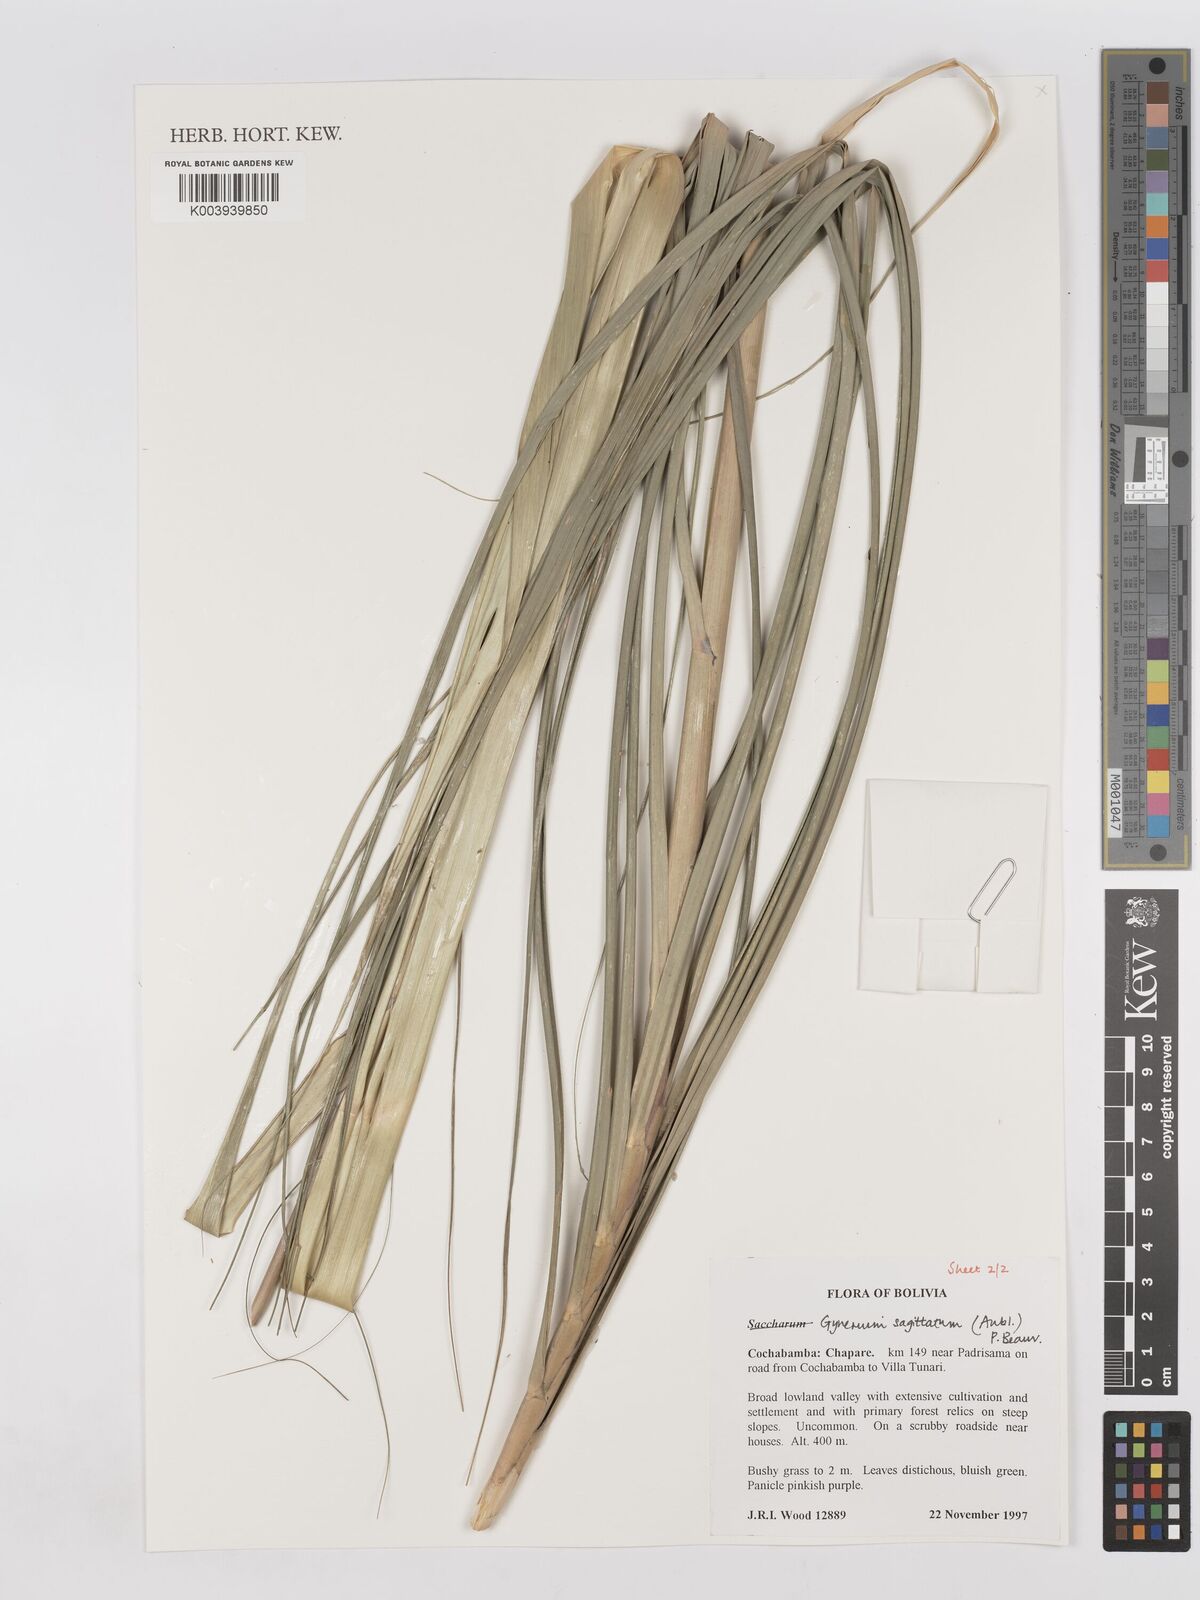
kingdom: Plantae
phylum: Tracheophyta
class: Liliopsida
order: Poales
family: Poaceae
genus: Gynerium
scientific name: Gynerium sagittatum
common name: Wild cane
